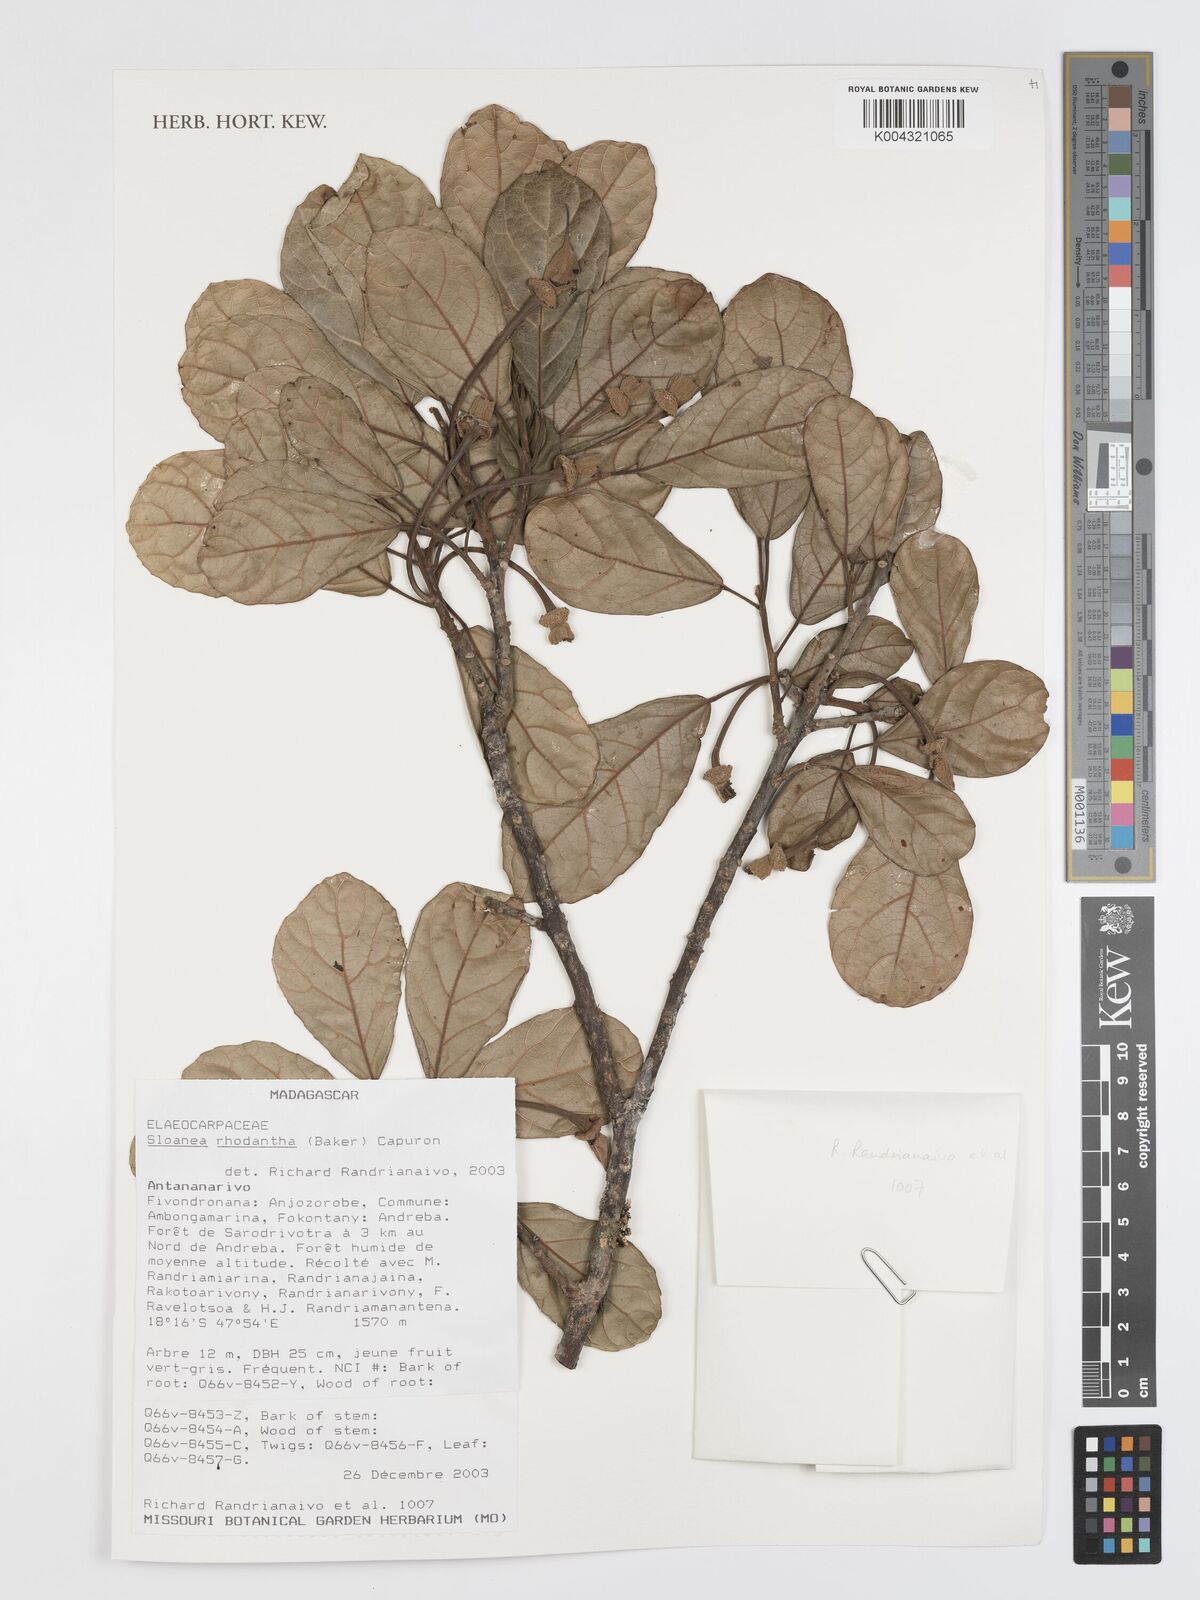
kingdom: Plantae
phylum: Tracheophyta
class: Magnoliopsida
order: Oxalidales
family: Elaeocarpaceae
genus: Sloanea
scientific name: Sloanea rhodantha
